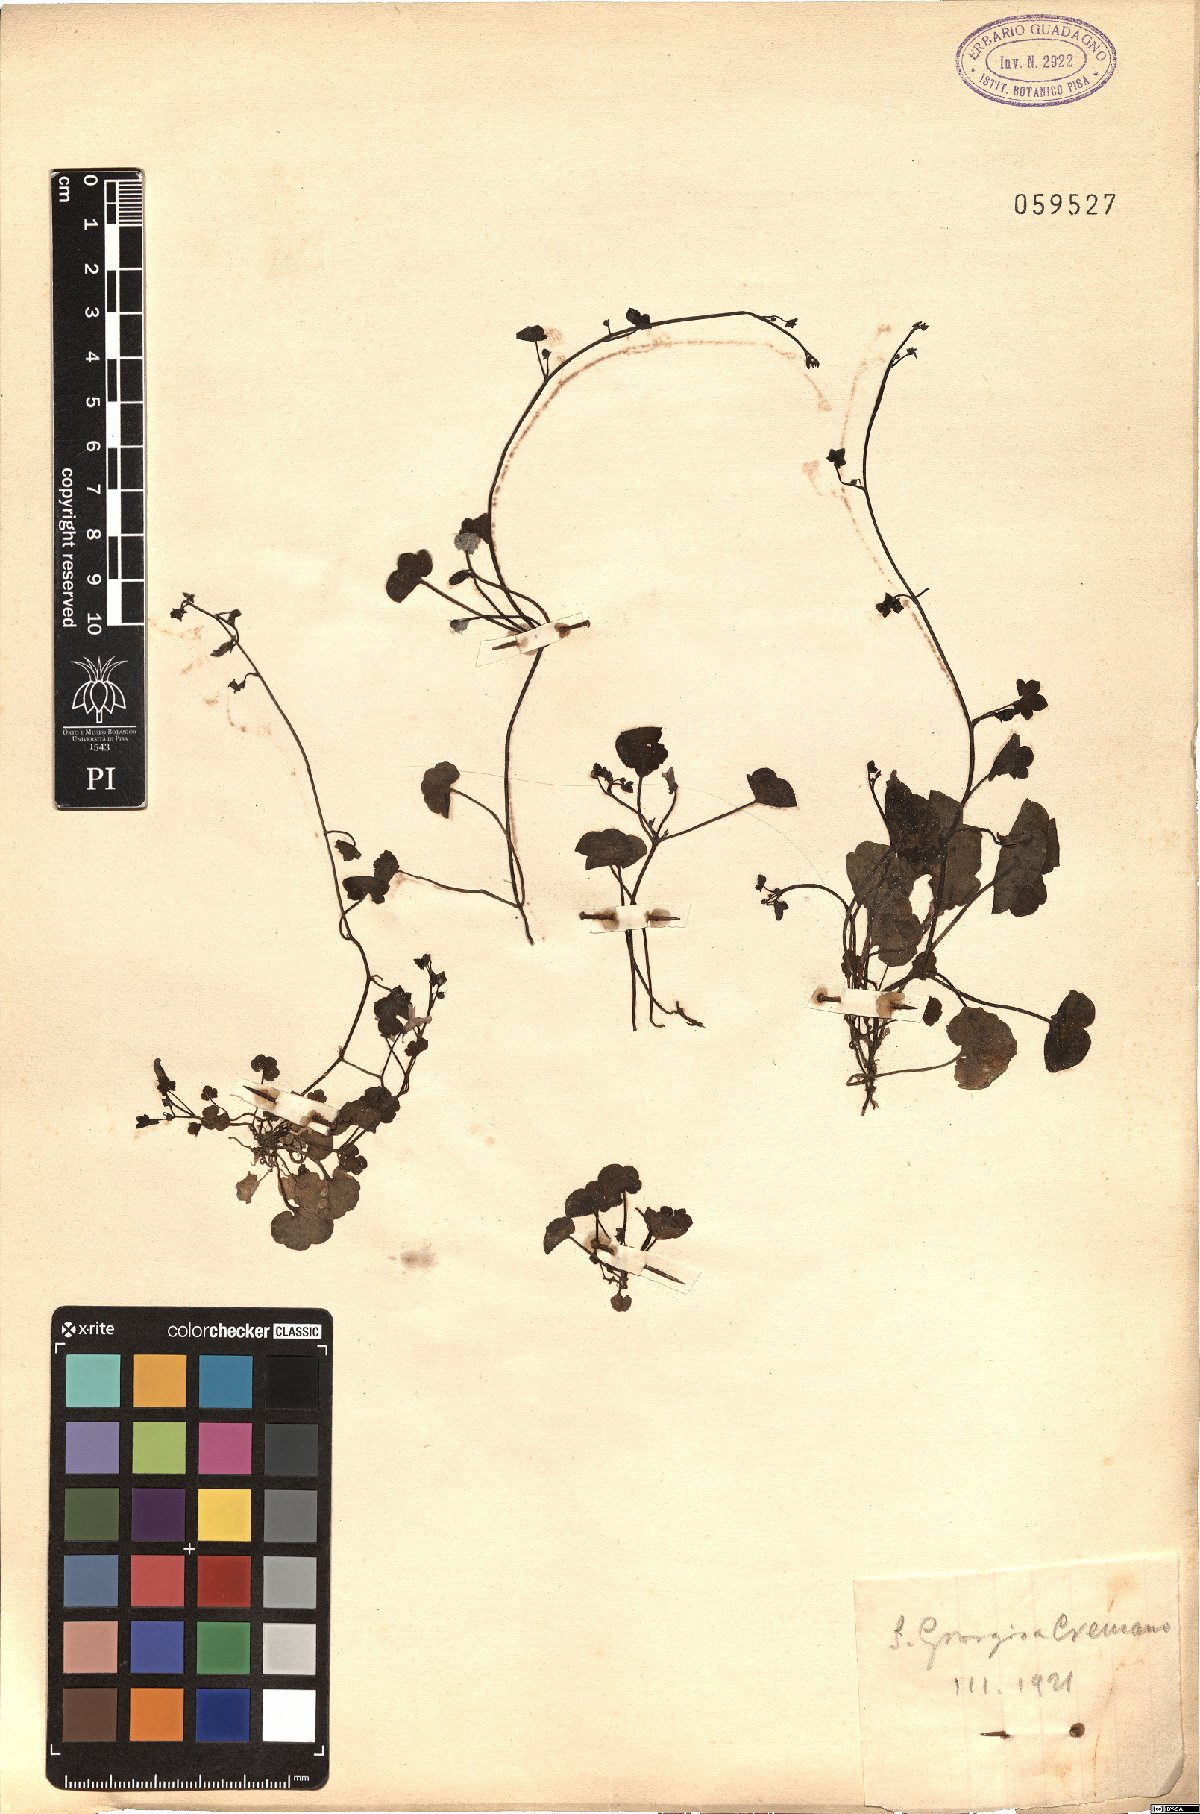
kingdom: Plantae
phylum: Tracheophyta
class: Magnoliopsida
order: Lamiales
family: Plantaginaceae
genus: Veronica
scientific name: Veronica cymbalaria
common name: Pale speedwell
